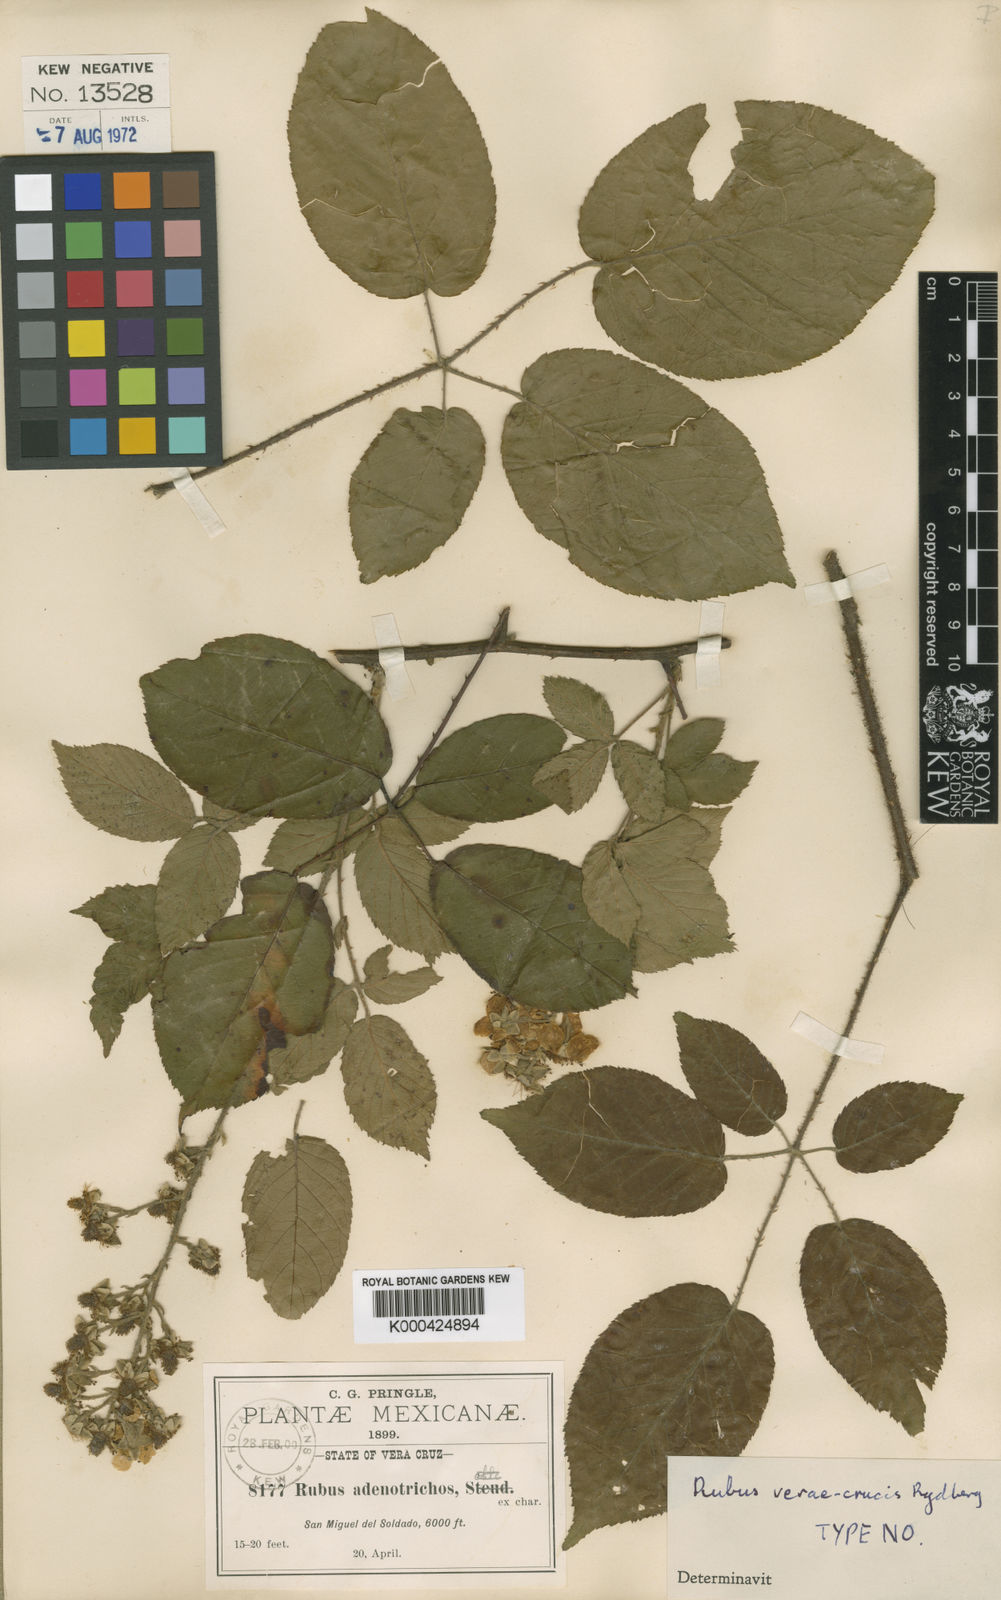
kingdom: Plantae
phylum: Tracheophyta
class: Magnoliopsida
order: Rosales
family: Rosaceae
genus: Rubus
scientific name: Rubus verae-crucis
